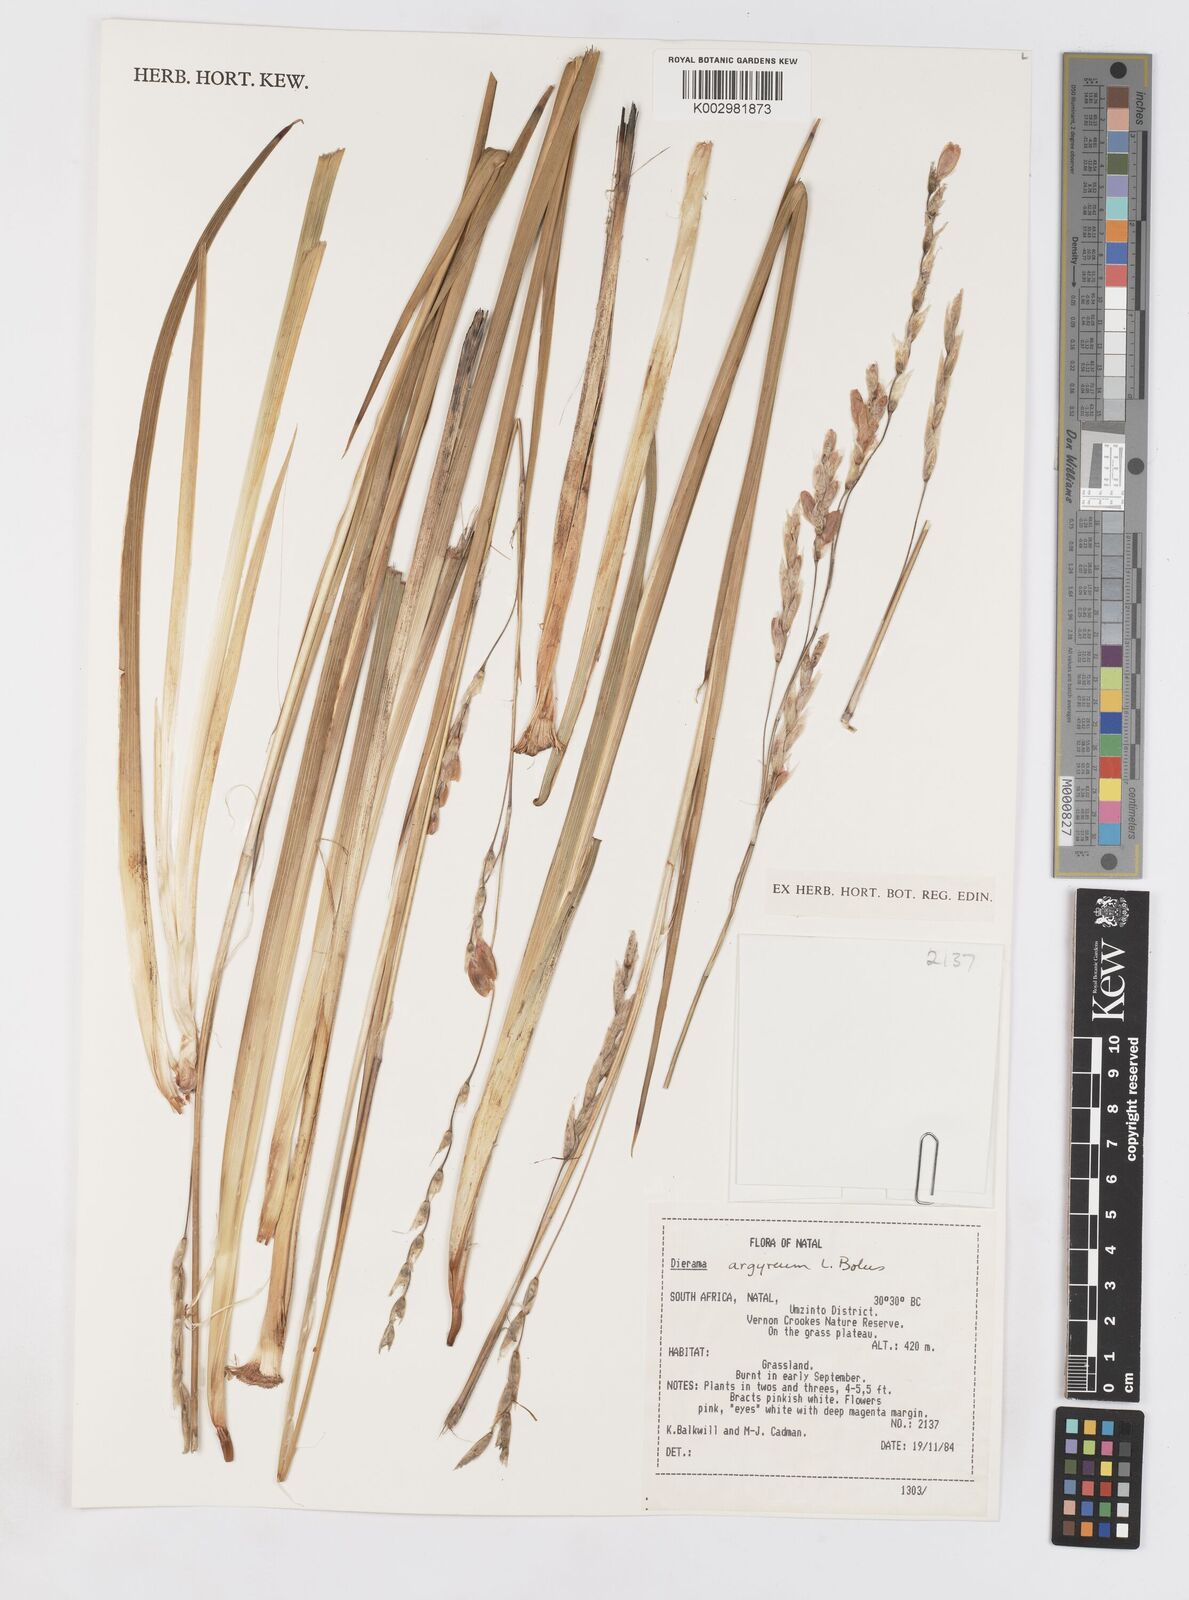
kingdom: Plantae
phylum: Tracheophyta
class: Liliopsida
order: Asparagales
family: Iridaceae
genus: Dierama
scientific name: Dierama argyreum
